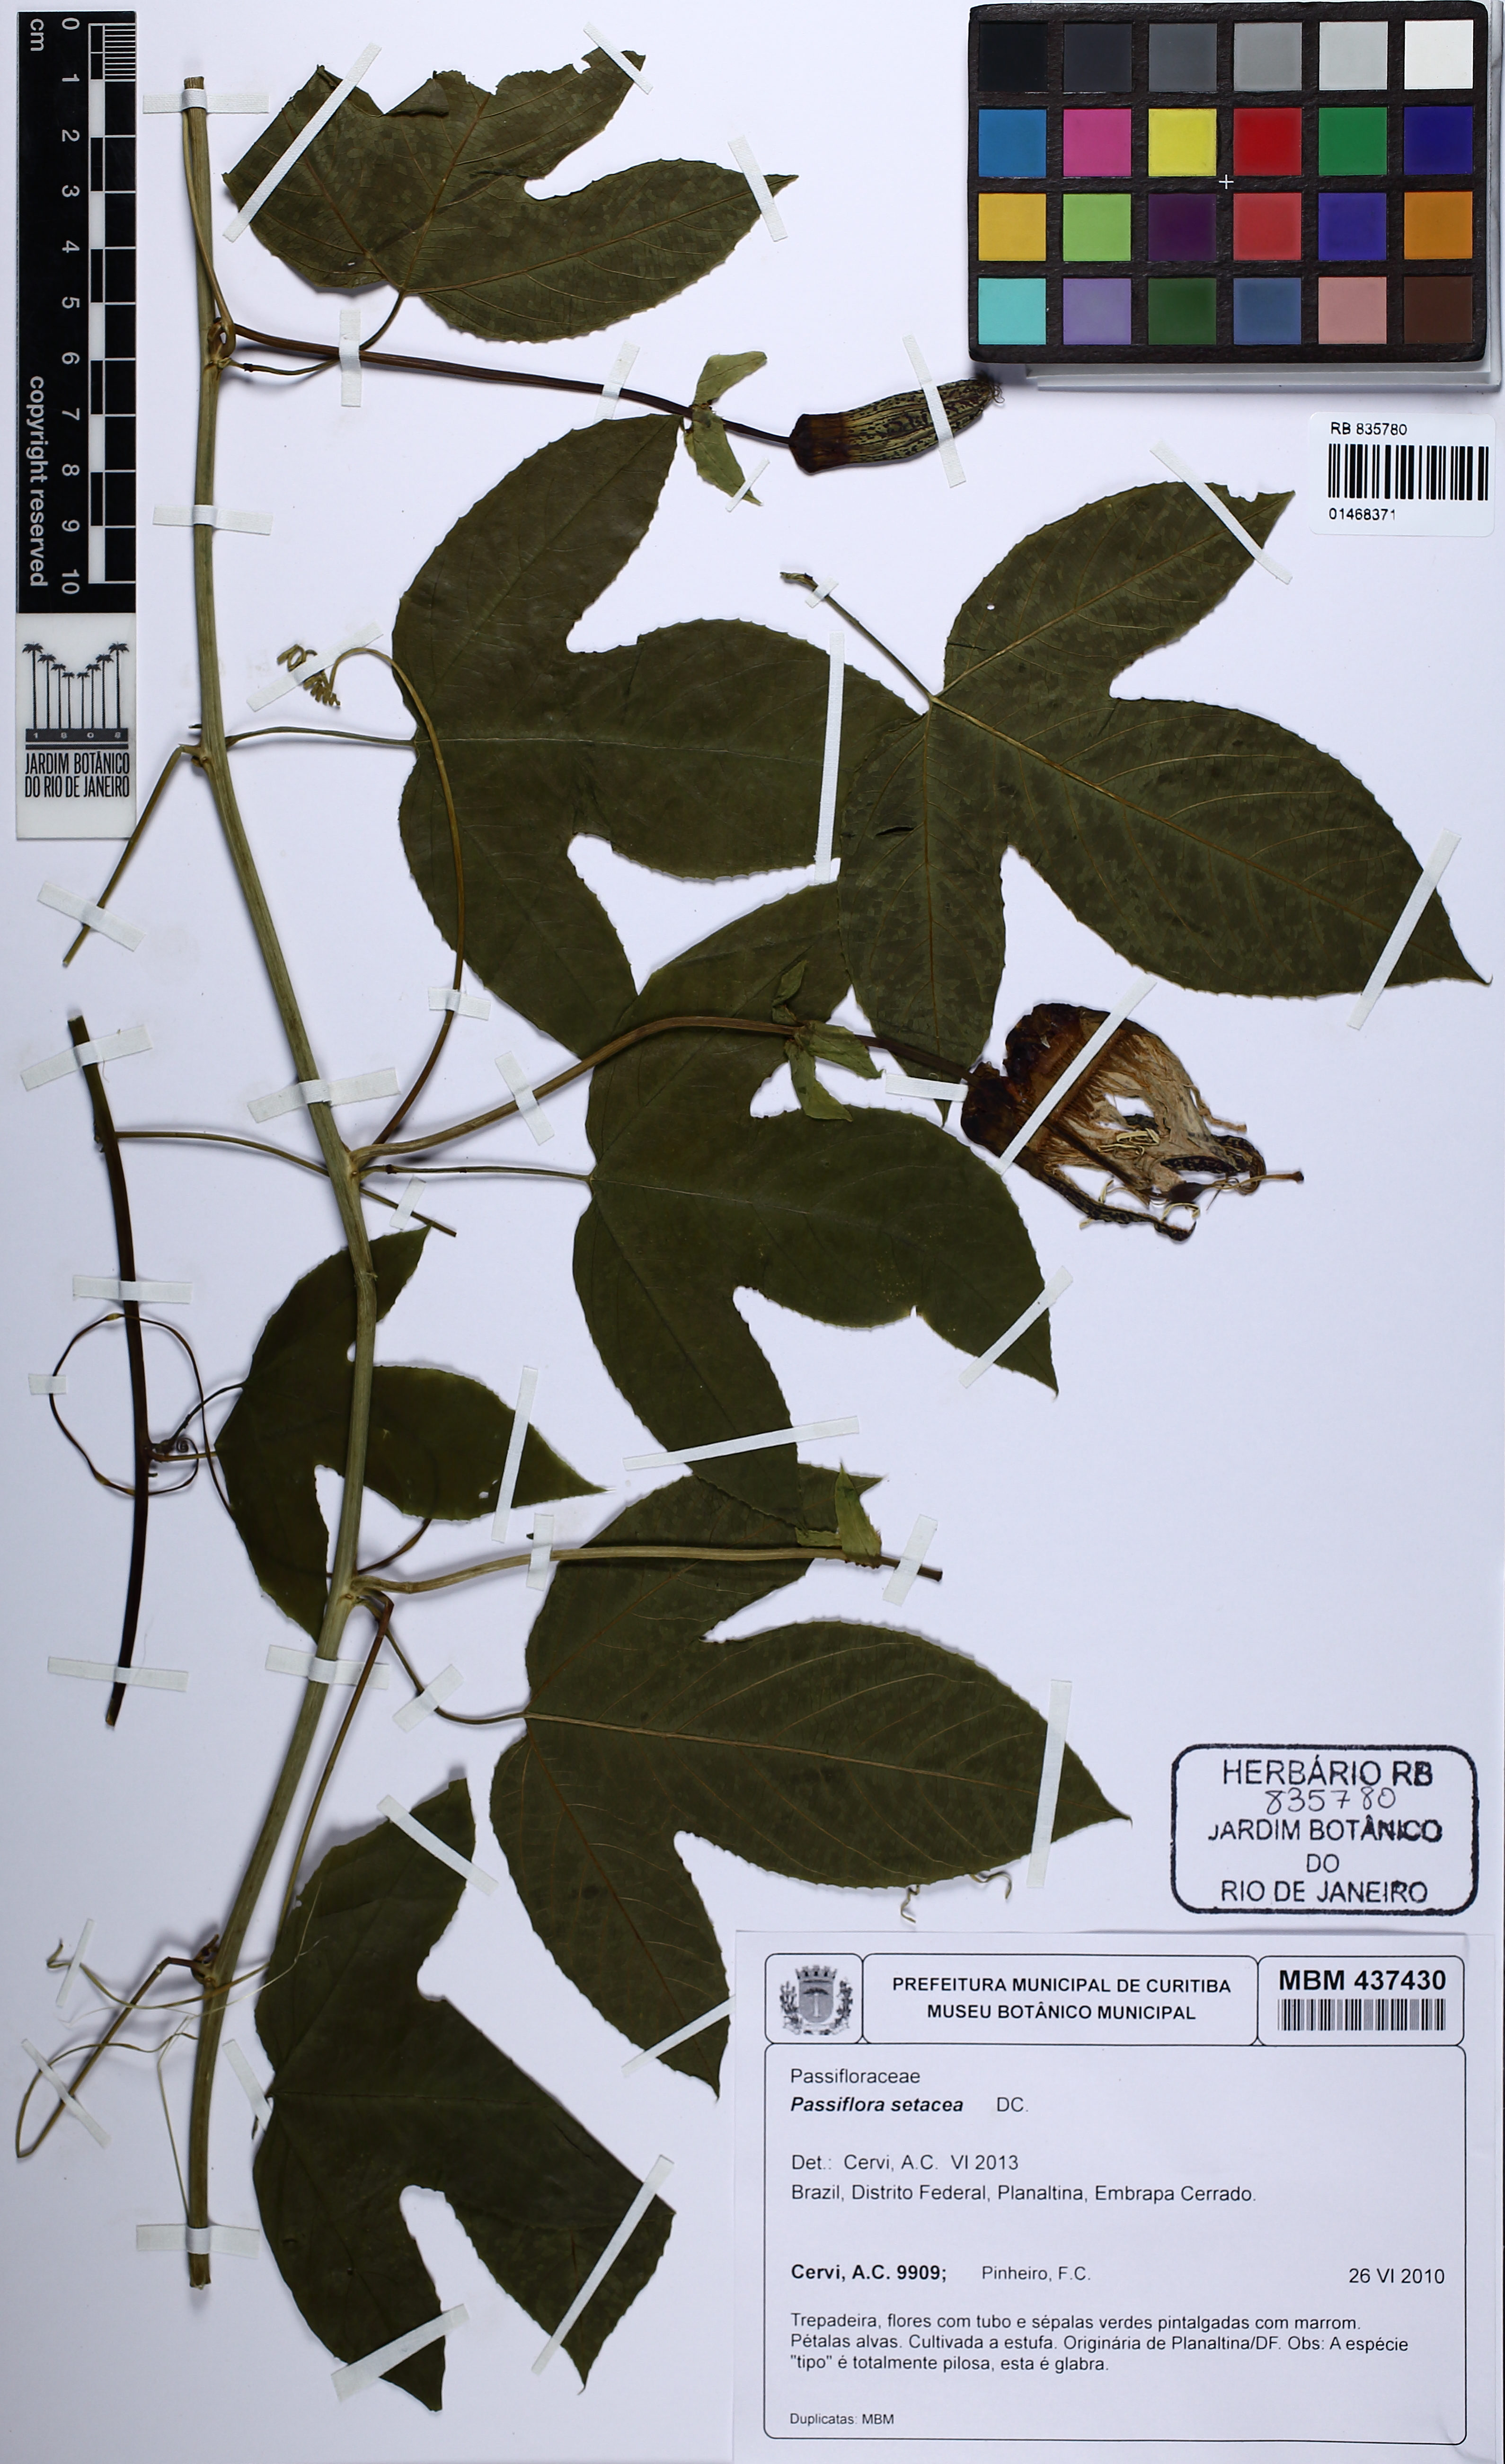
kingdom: Plantae
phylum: Tracheophyta
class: Magnoliopsida
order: Malpighiales
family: Passifloraceae
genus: Passiflora
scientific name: Passiflora setacea
